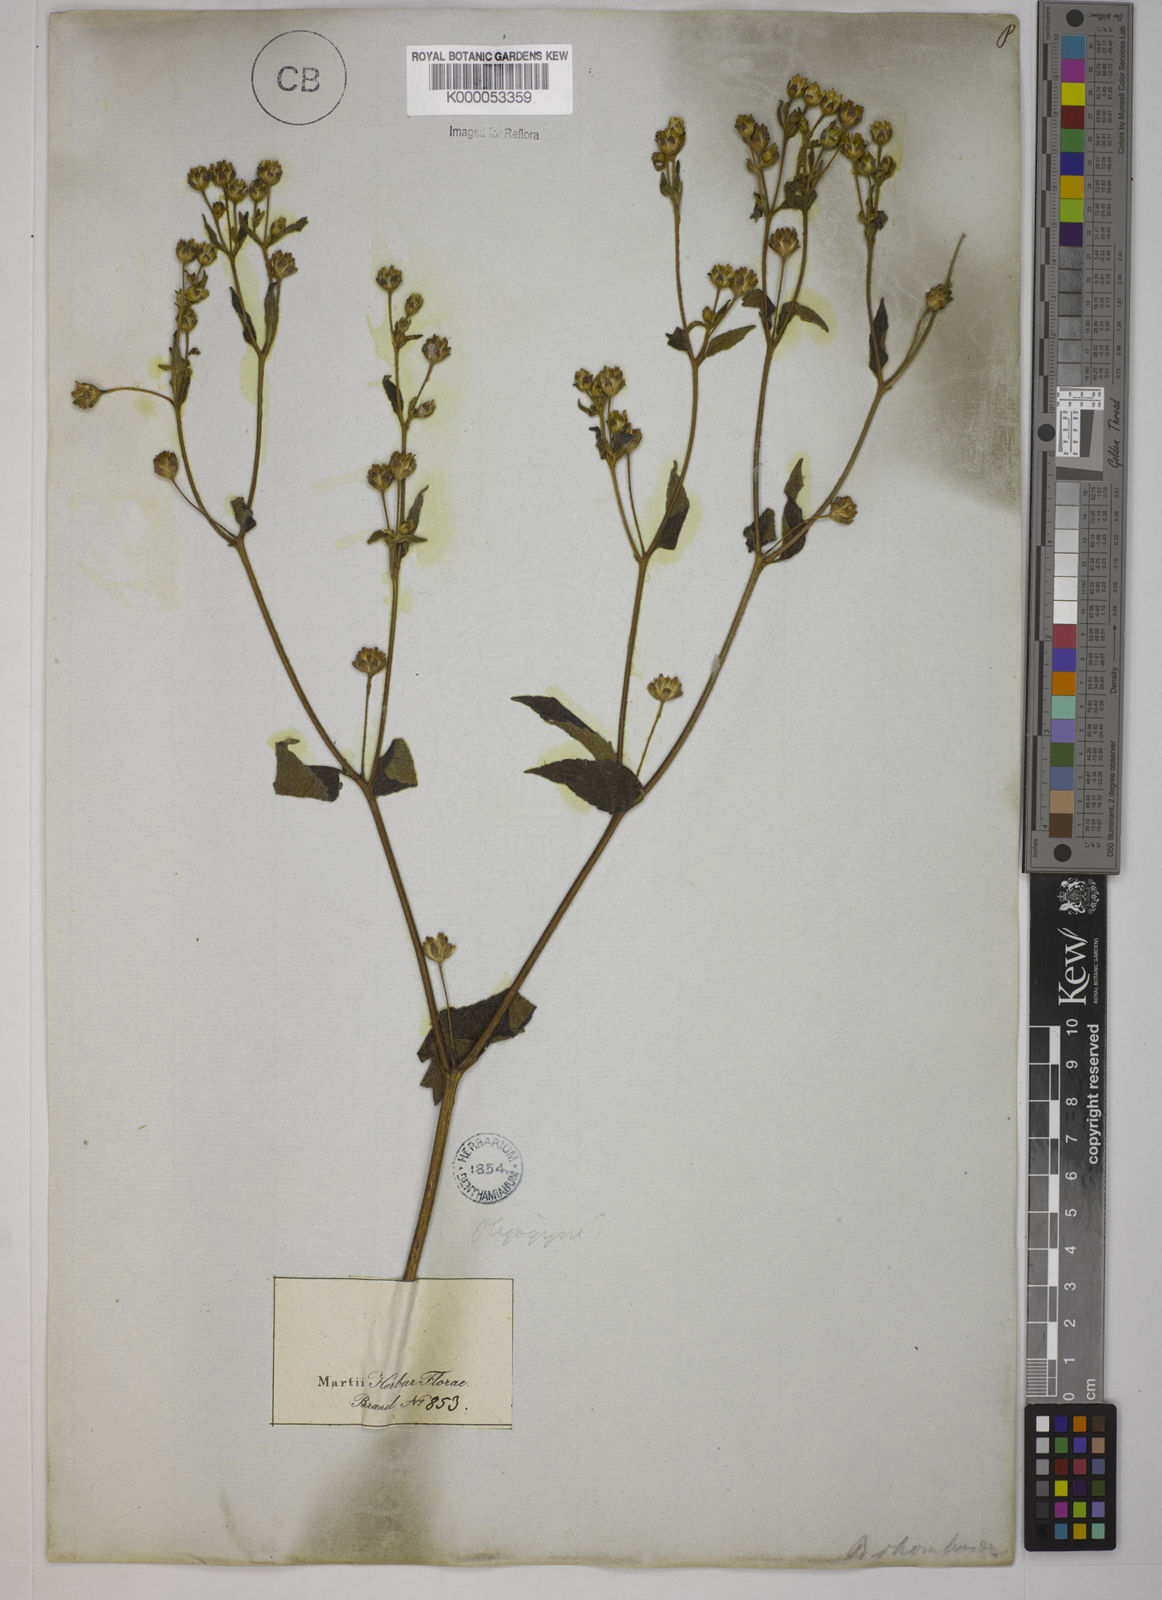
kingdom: Plantae
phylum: Tracheophyta
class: Magnoliopsida
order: Asterales
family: Asteraceae
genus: Blainvillea
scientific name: Blainvillea acmella
